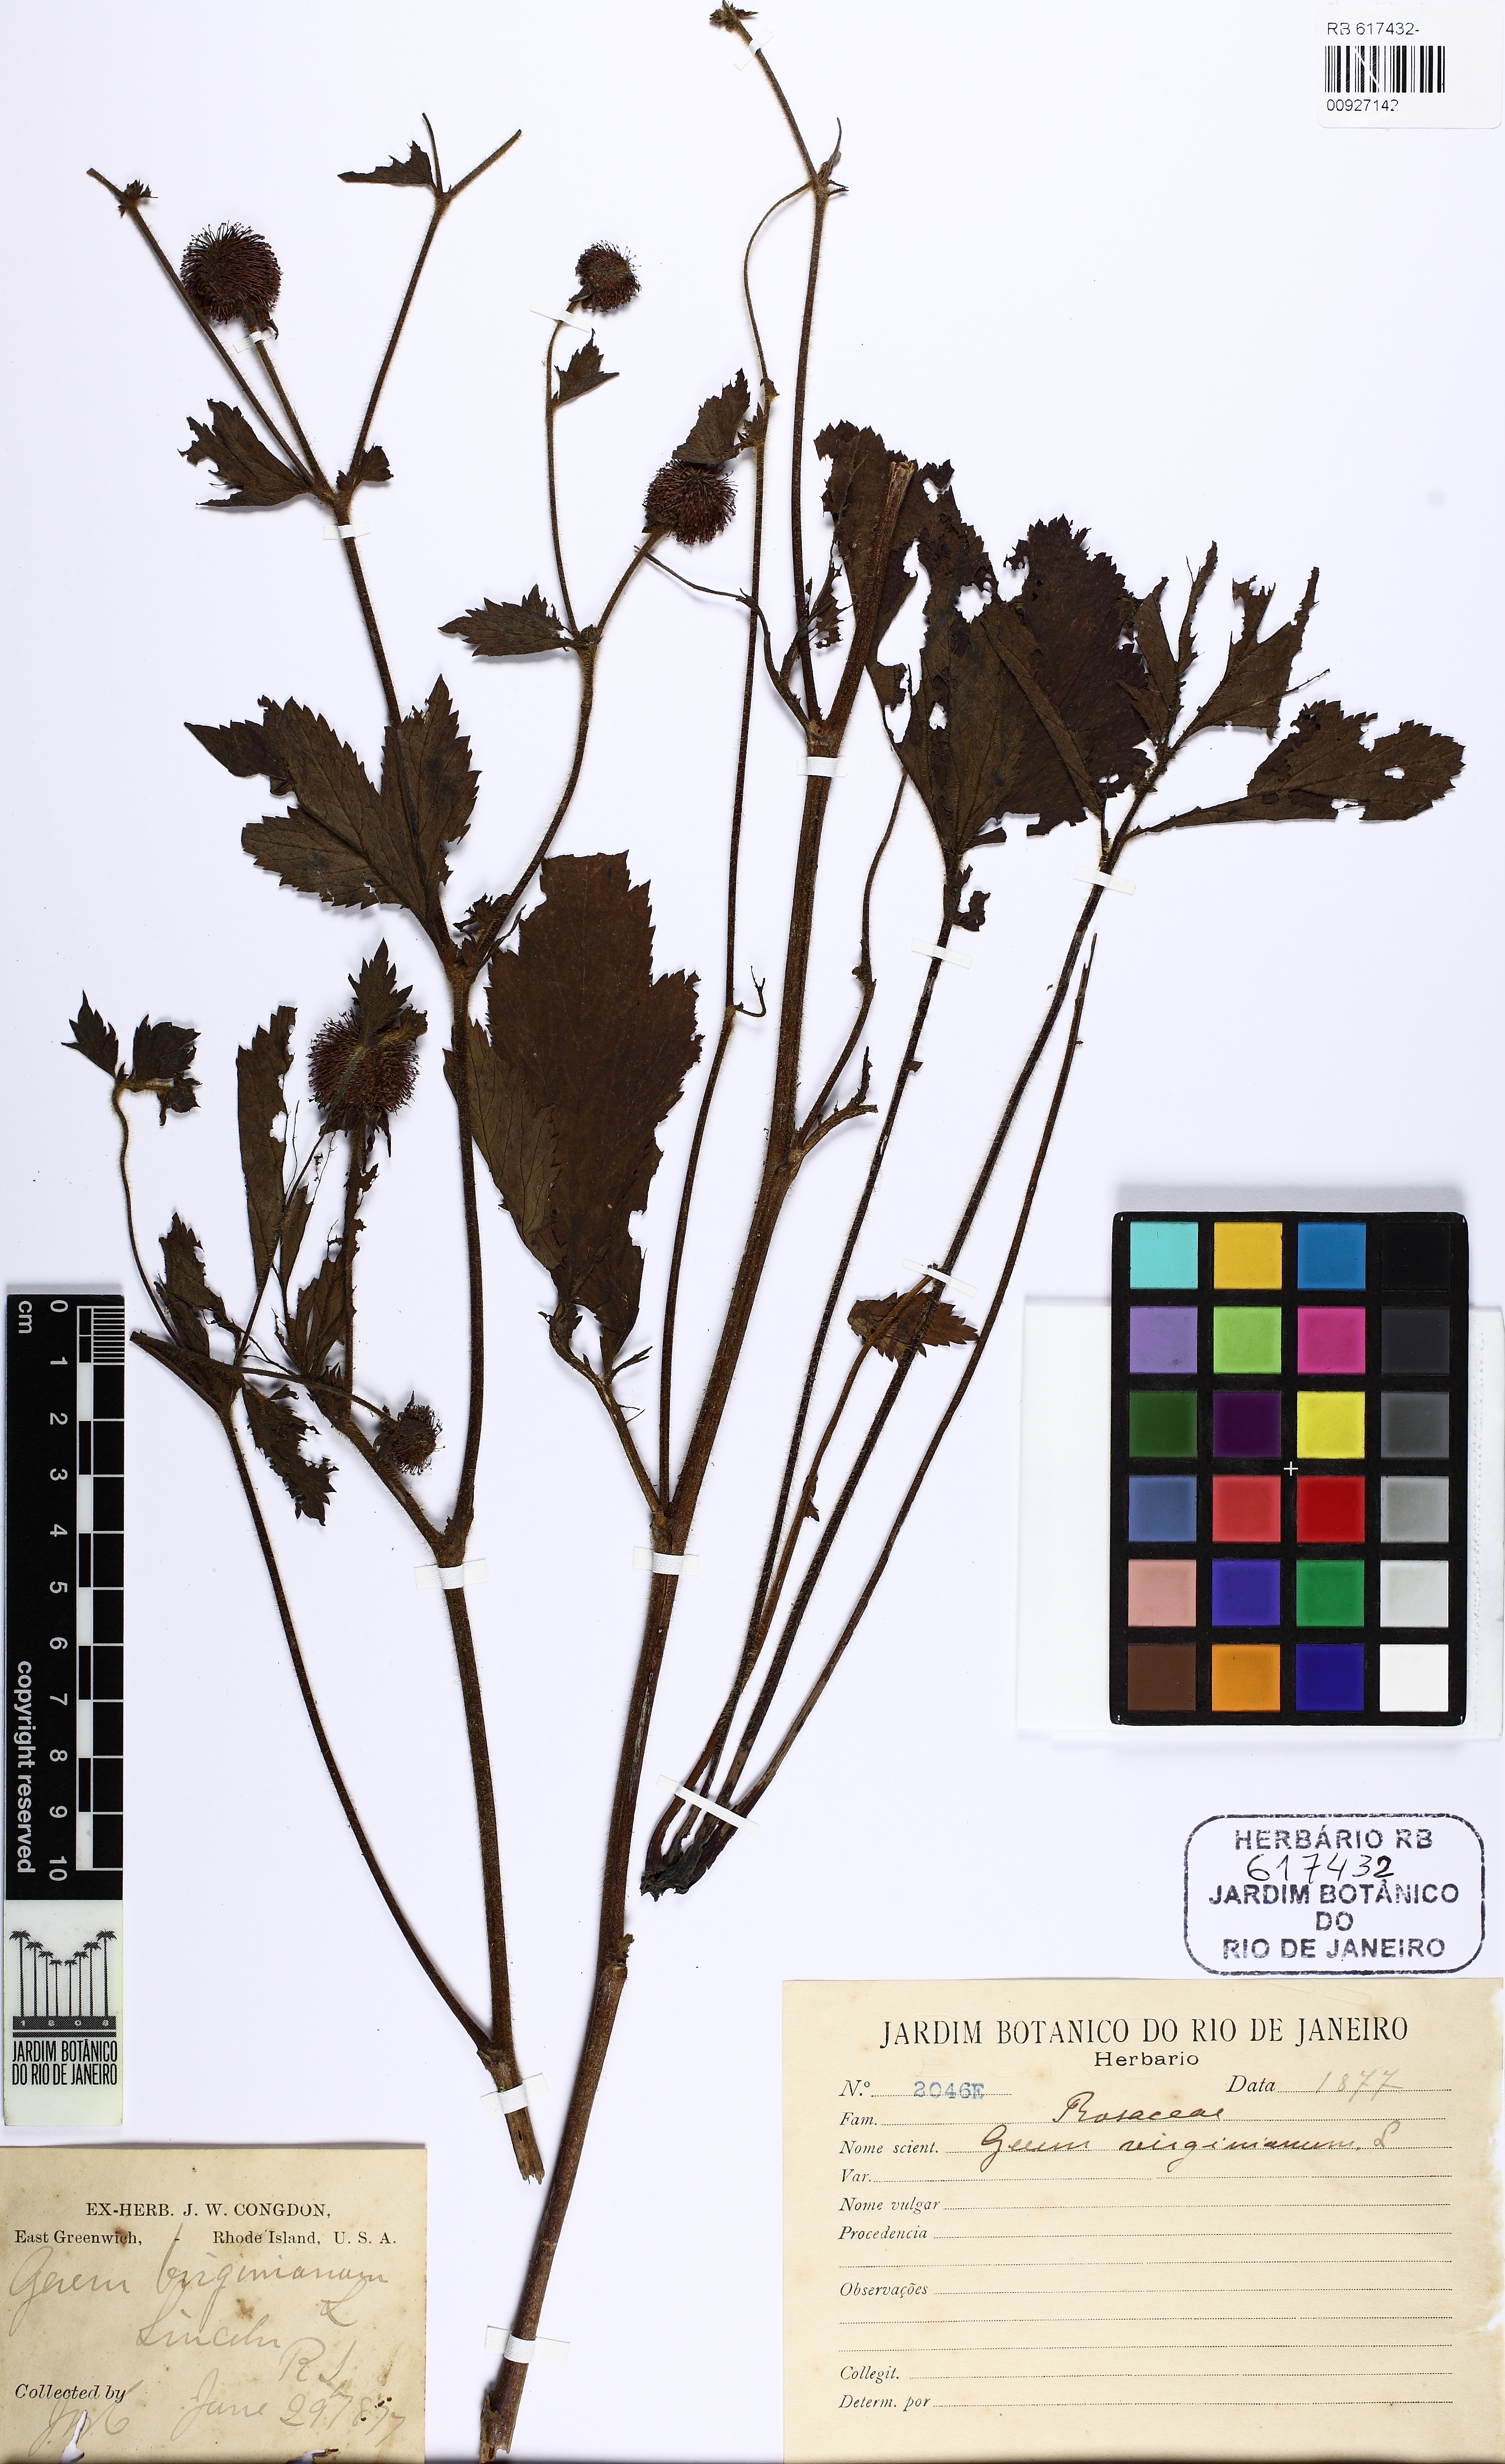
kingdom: Plantae
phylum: Tracheophyta
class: Magnoliopsida
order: Rosales
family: Rosaceae
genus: Geum
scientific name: Geum virginianum
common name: Cream avens
